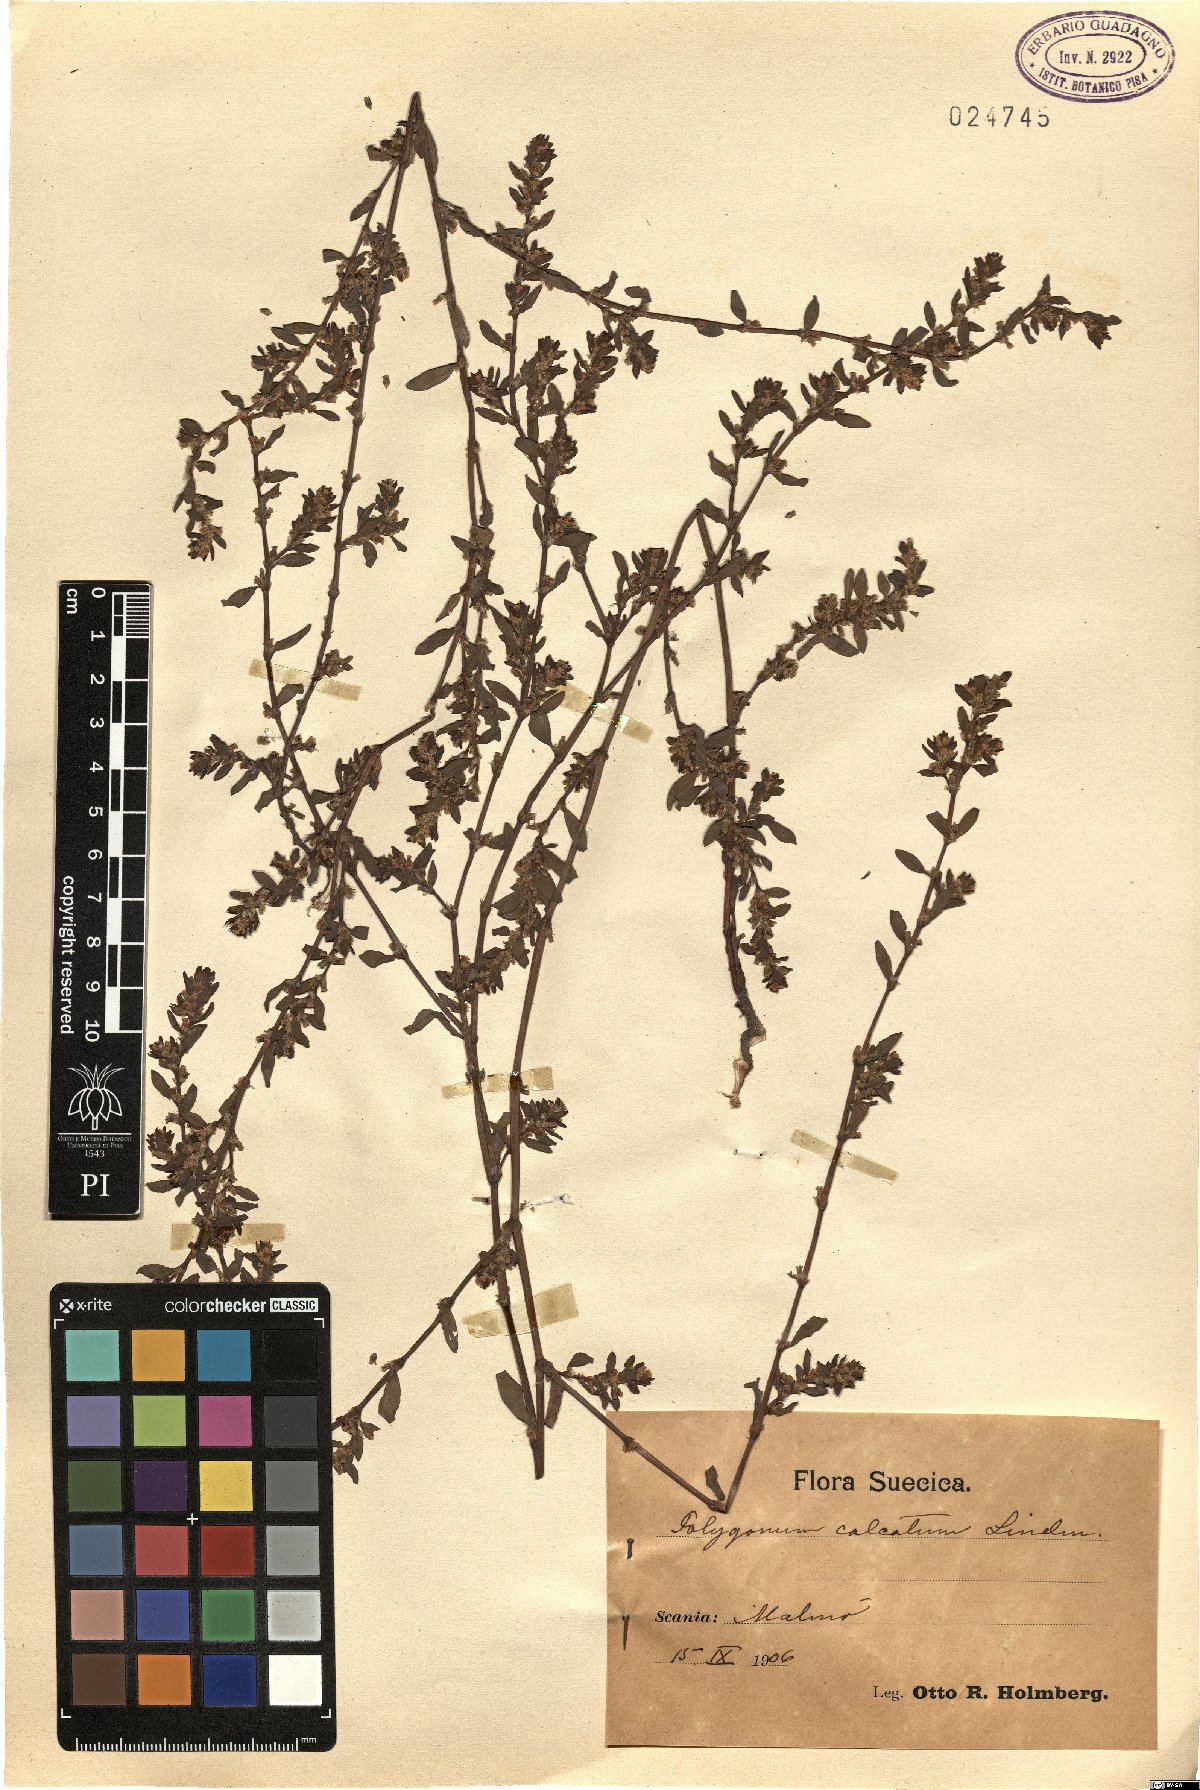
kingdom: Plantae
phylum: Tracheophyta
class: Magnoliopsida
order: Caryophyllales
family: Polygonaceae
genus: Polygonum
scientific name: Polygonum arenastrum
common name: Equal-leaved knotgrass
